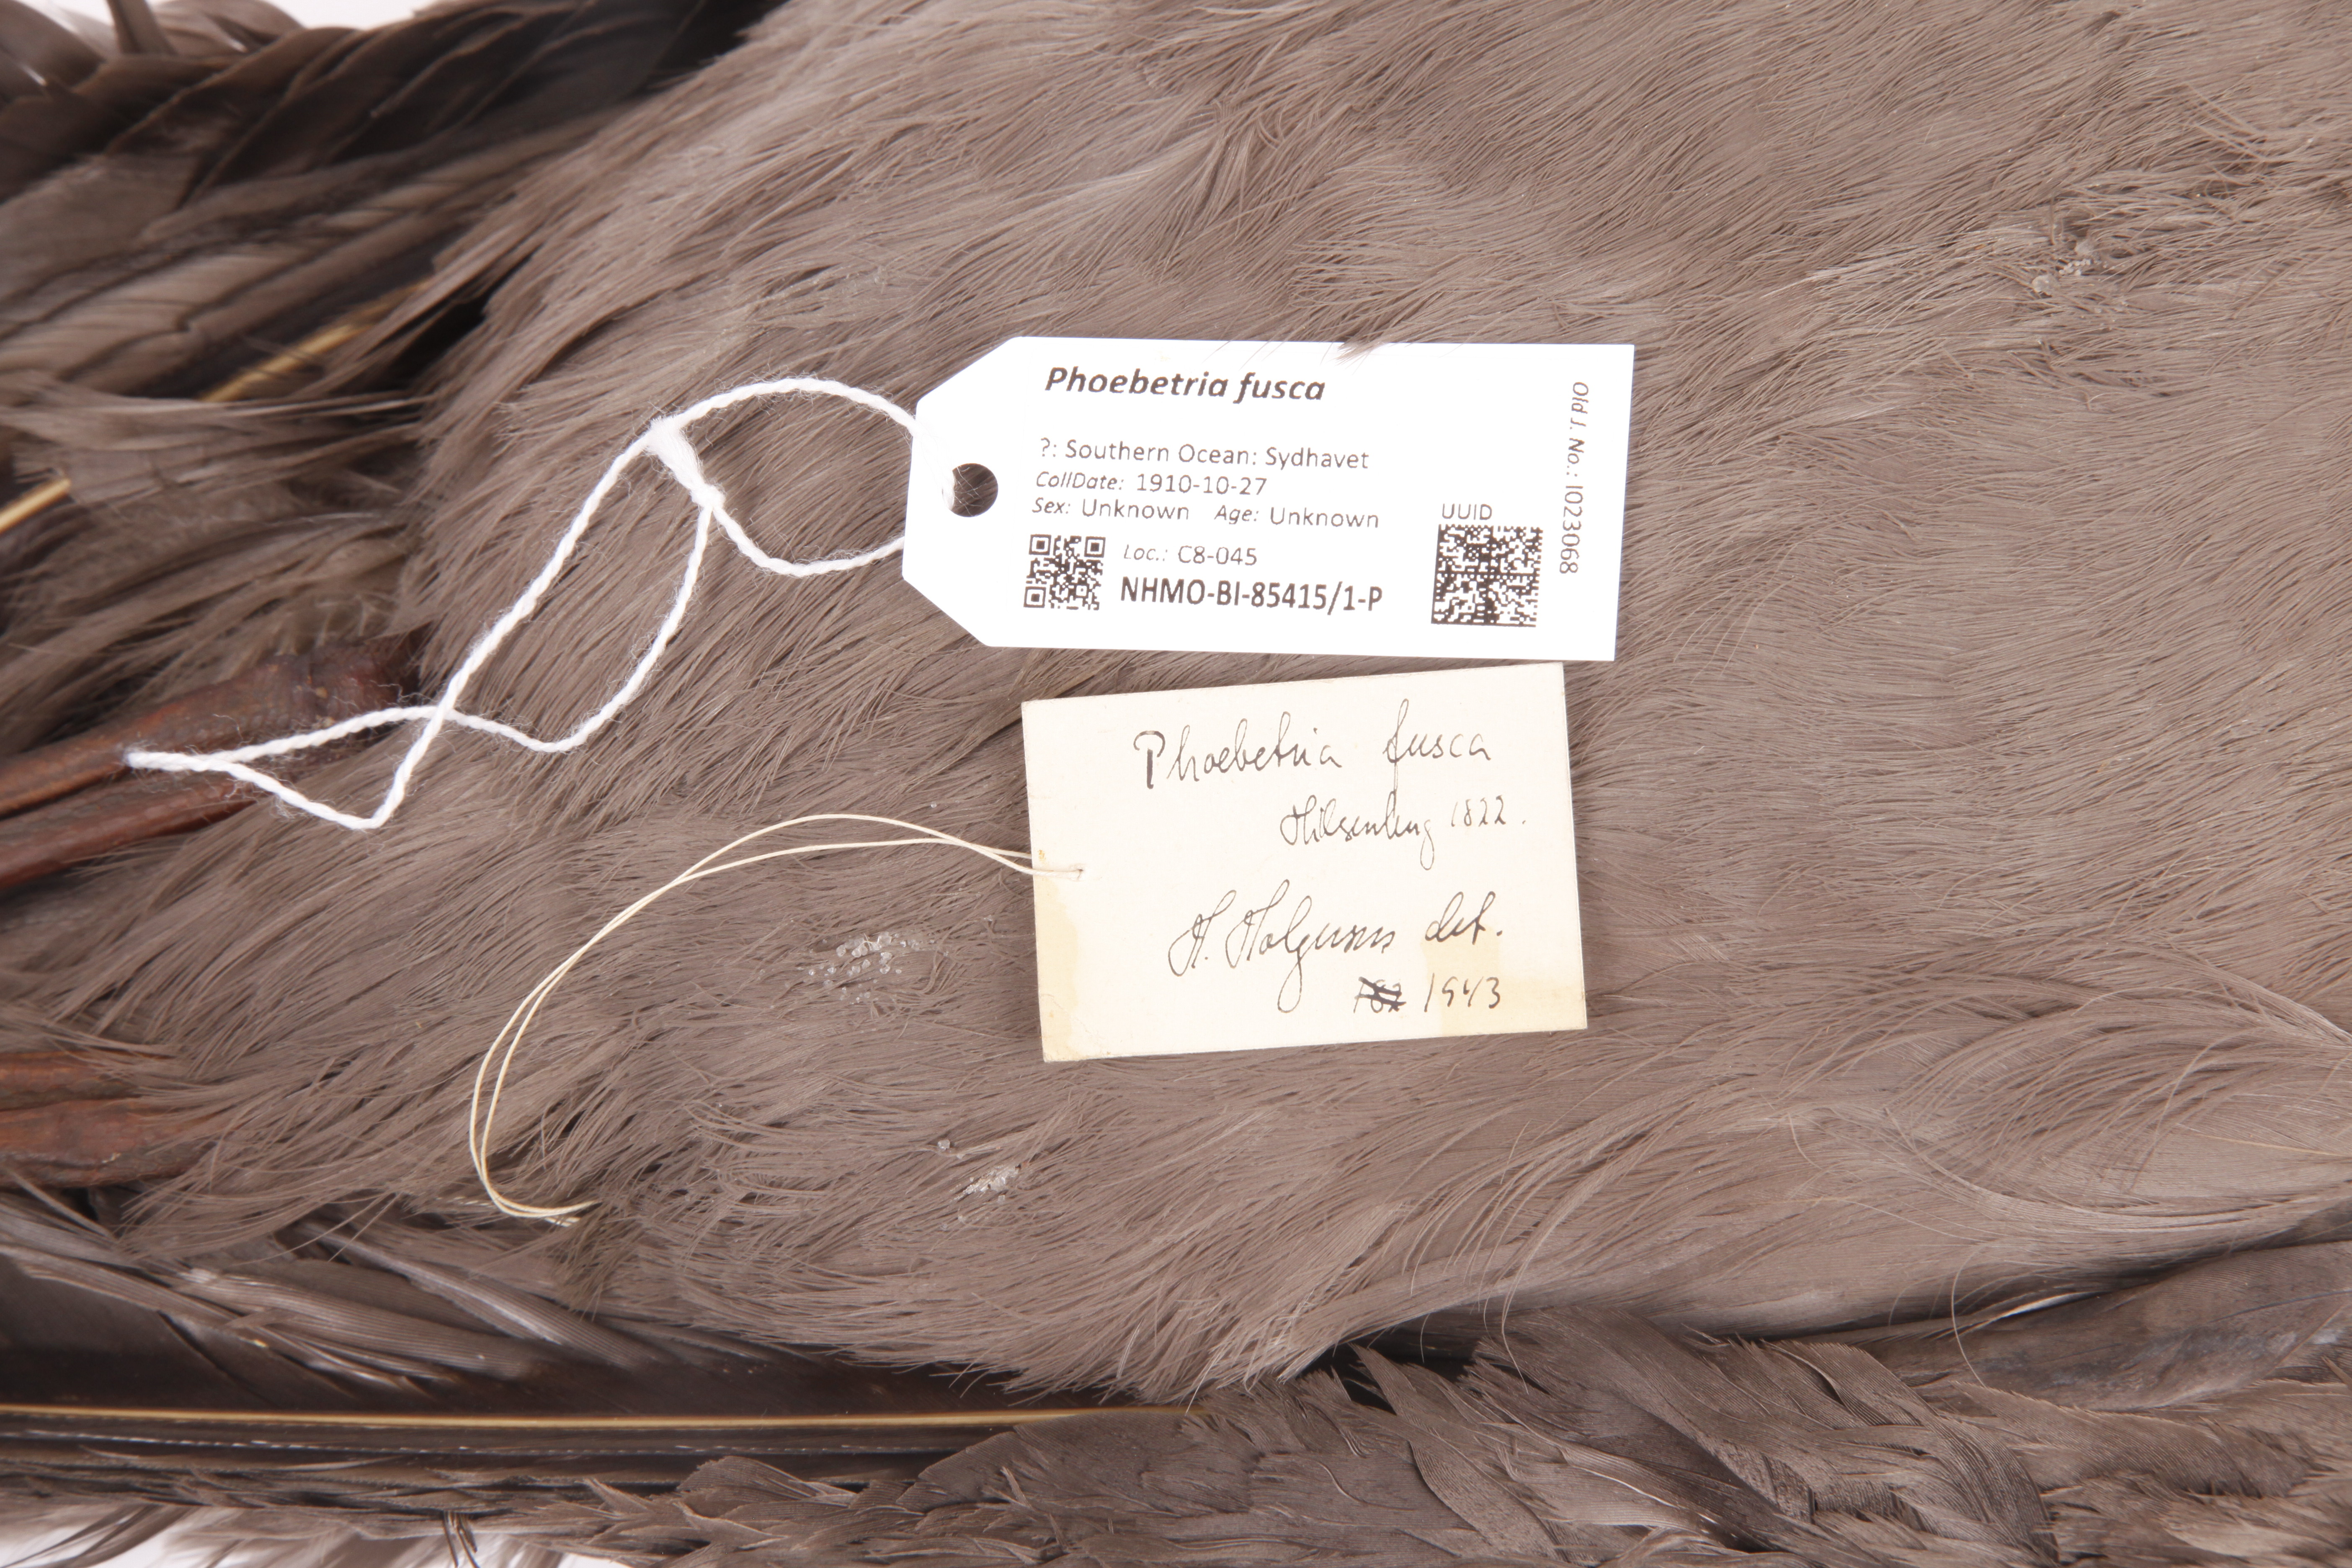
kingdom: Animalia
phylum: Chordata
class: Aves
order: Procellariiformes
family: Diomedeidae
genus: Phoebetria
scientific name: Phoebetria fusca
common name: Sooty albatross
